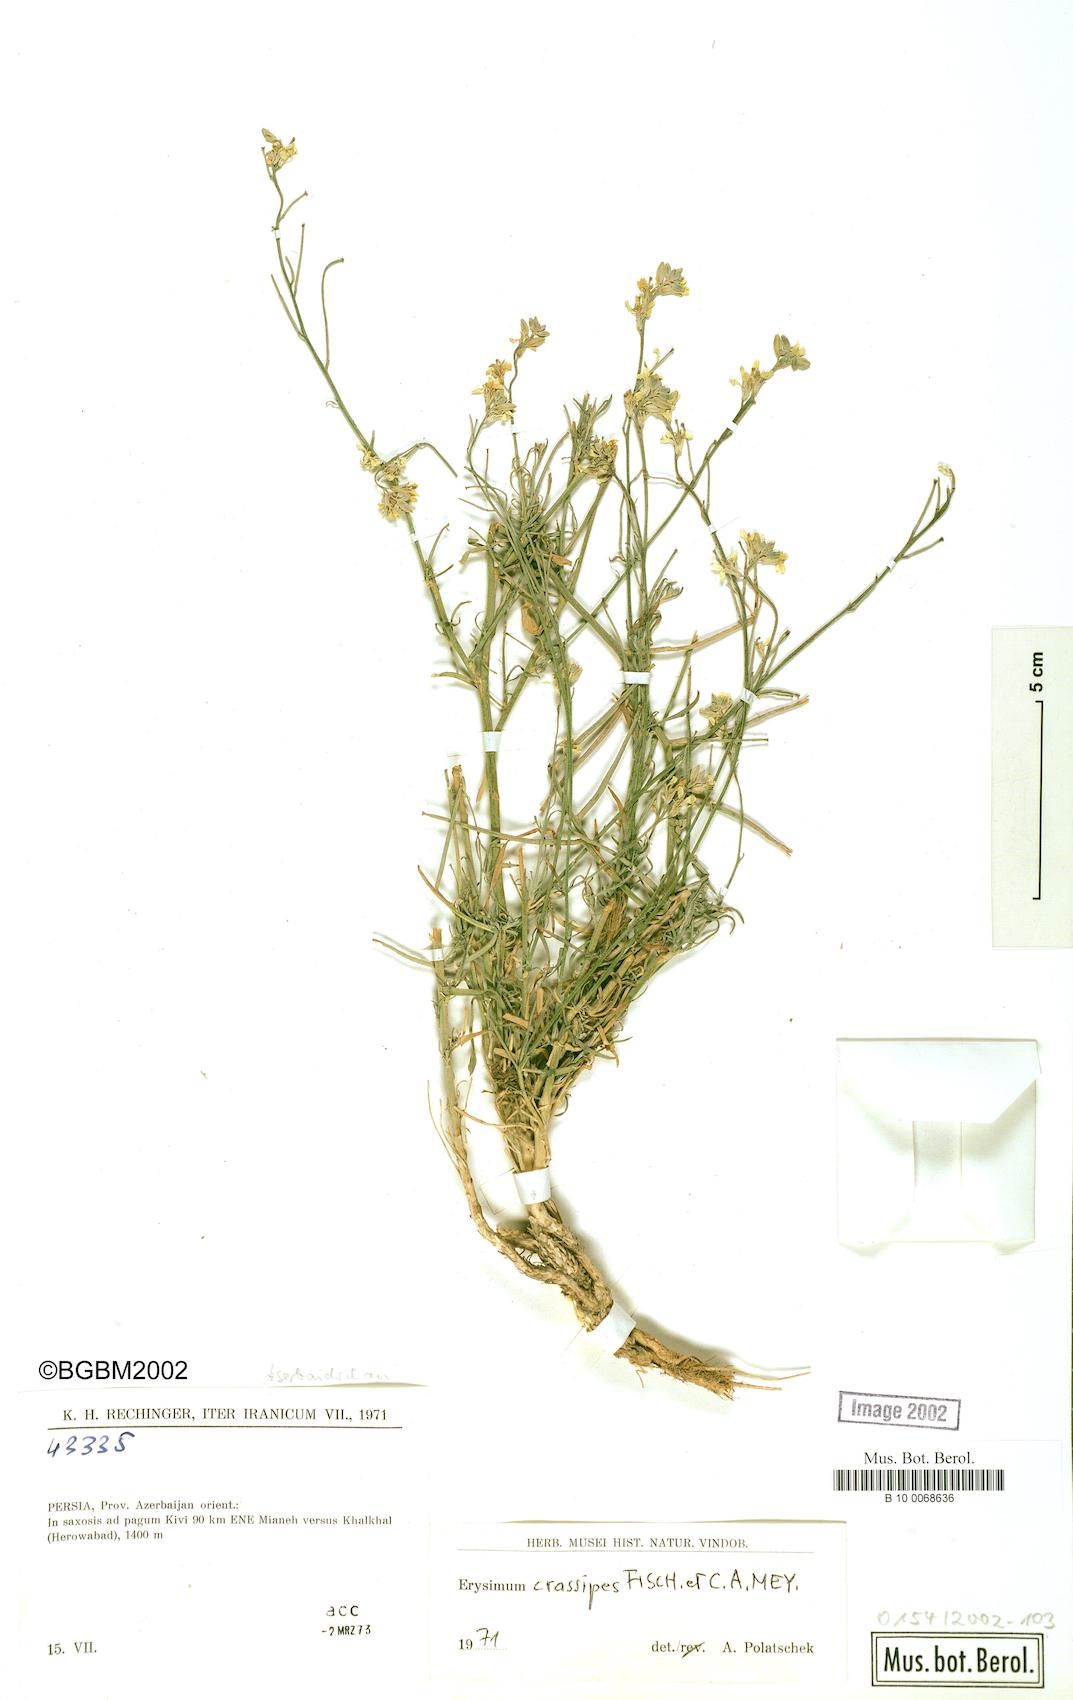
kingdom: Plantae
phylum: Tracheophyta
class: Magnoliopsida
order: Brassicales
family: Brassicaceae
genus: Erysimum
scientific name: Erysimum crassipes
